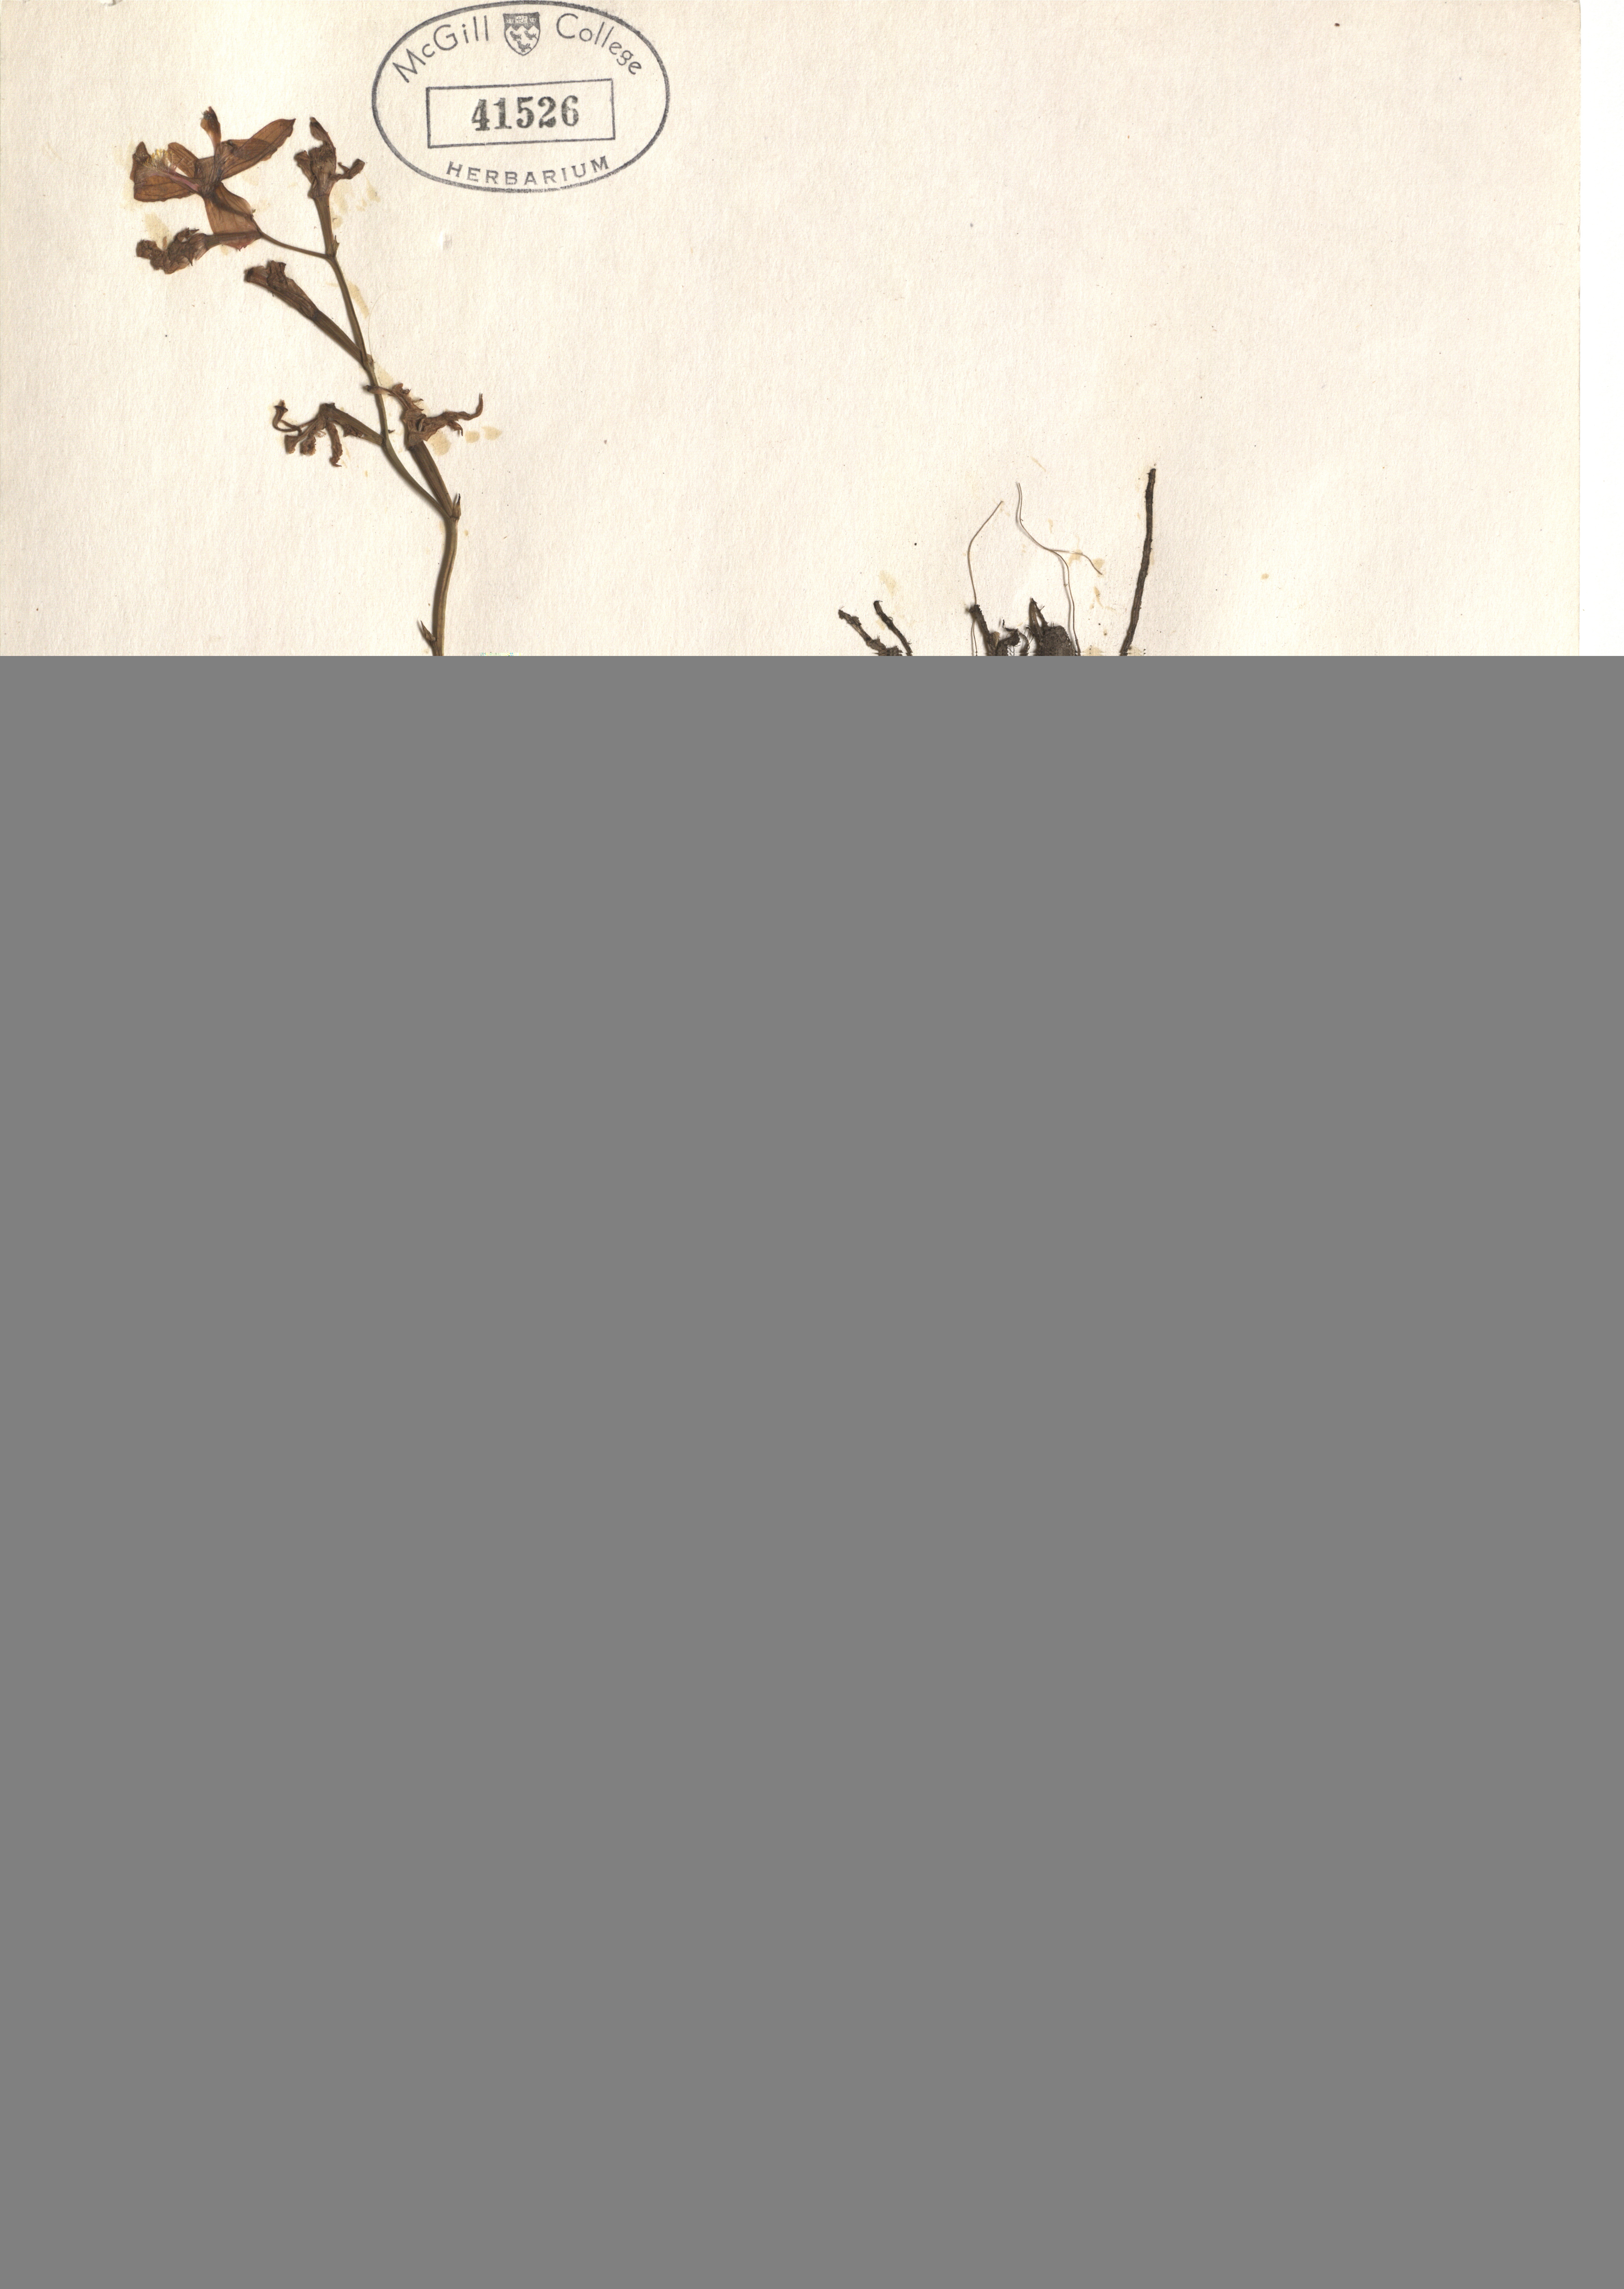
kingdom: Plantae
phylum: Tracheophyta
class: Liliopsida
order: Asparagales
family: Orchidaceae
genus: Calopogon
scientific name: Calopogon tuberosus
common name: Grass-pink
